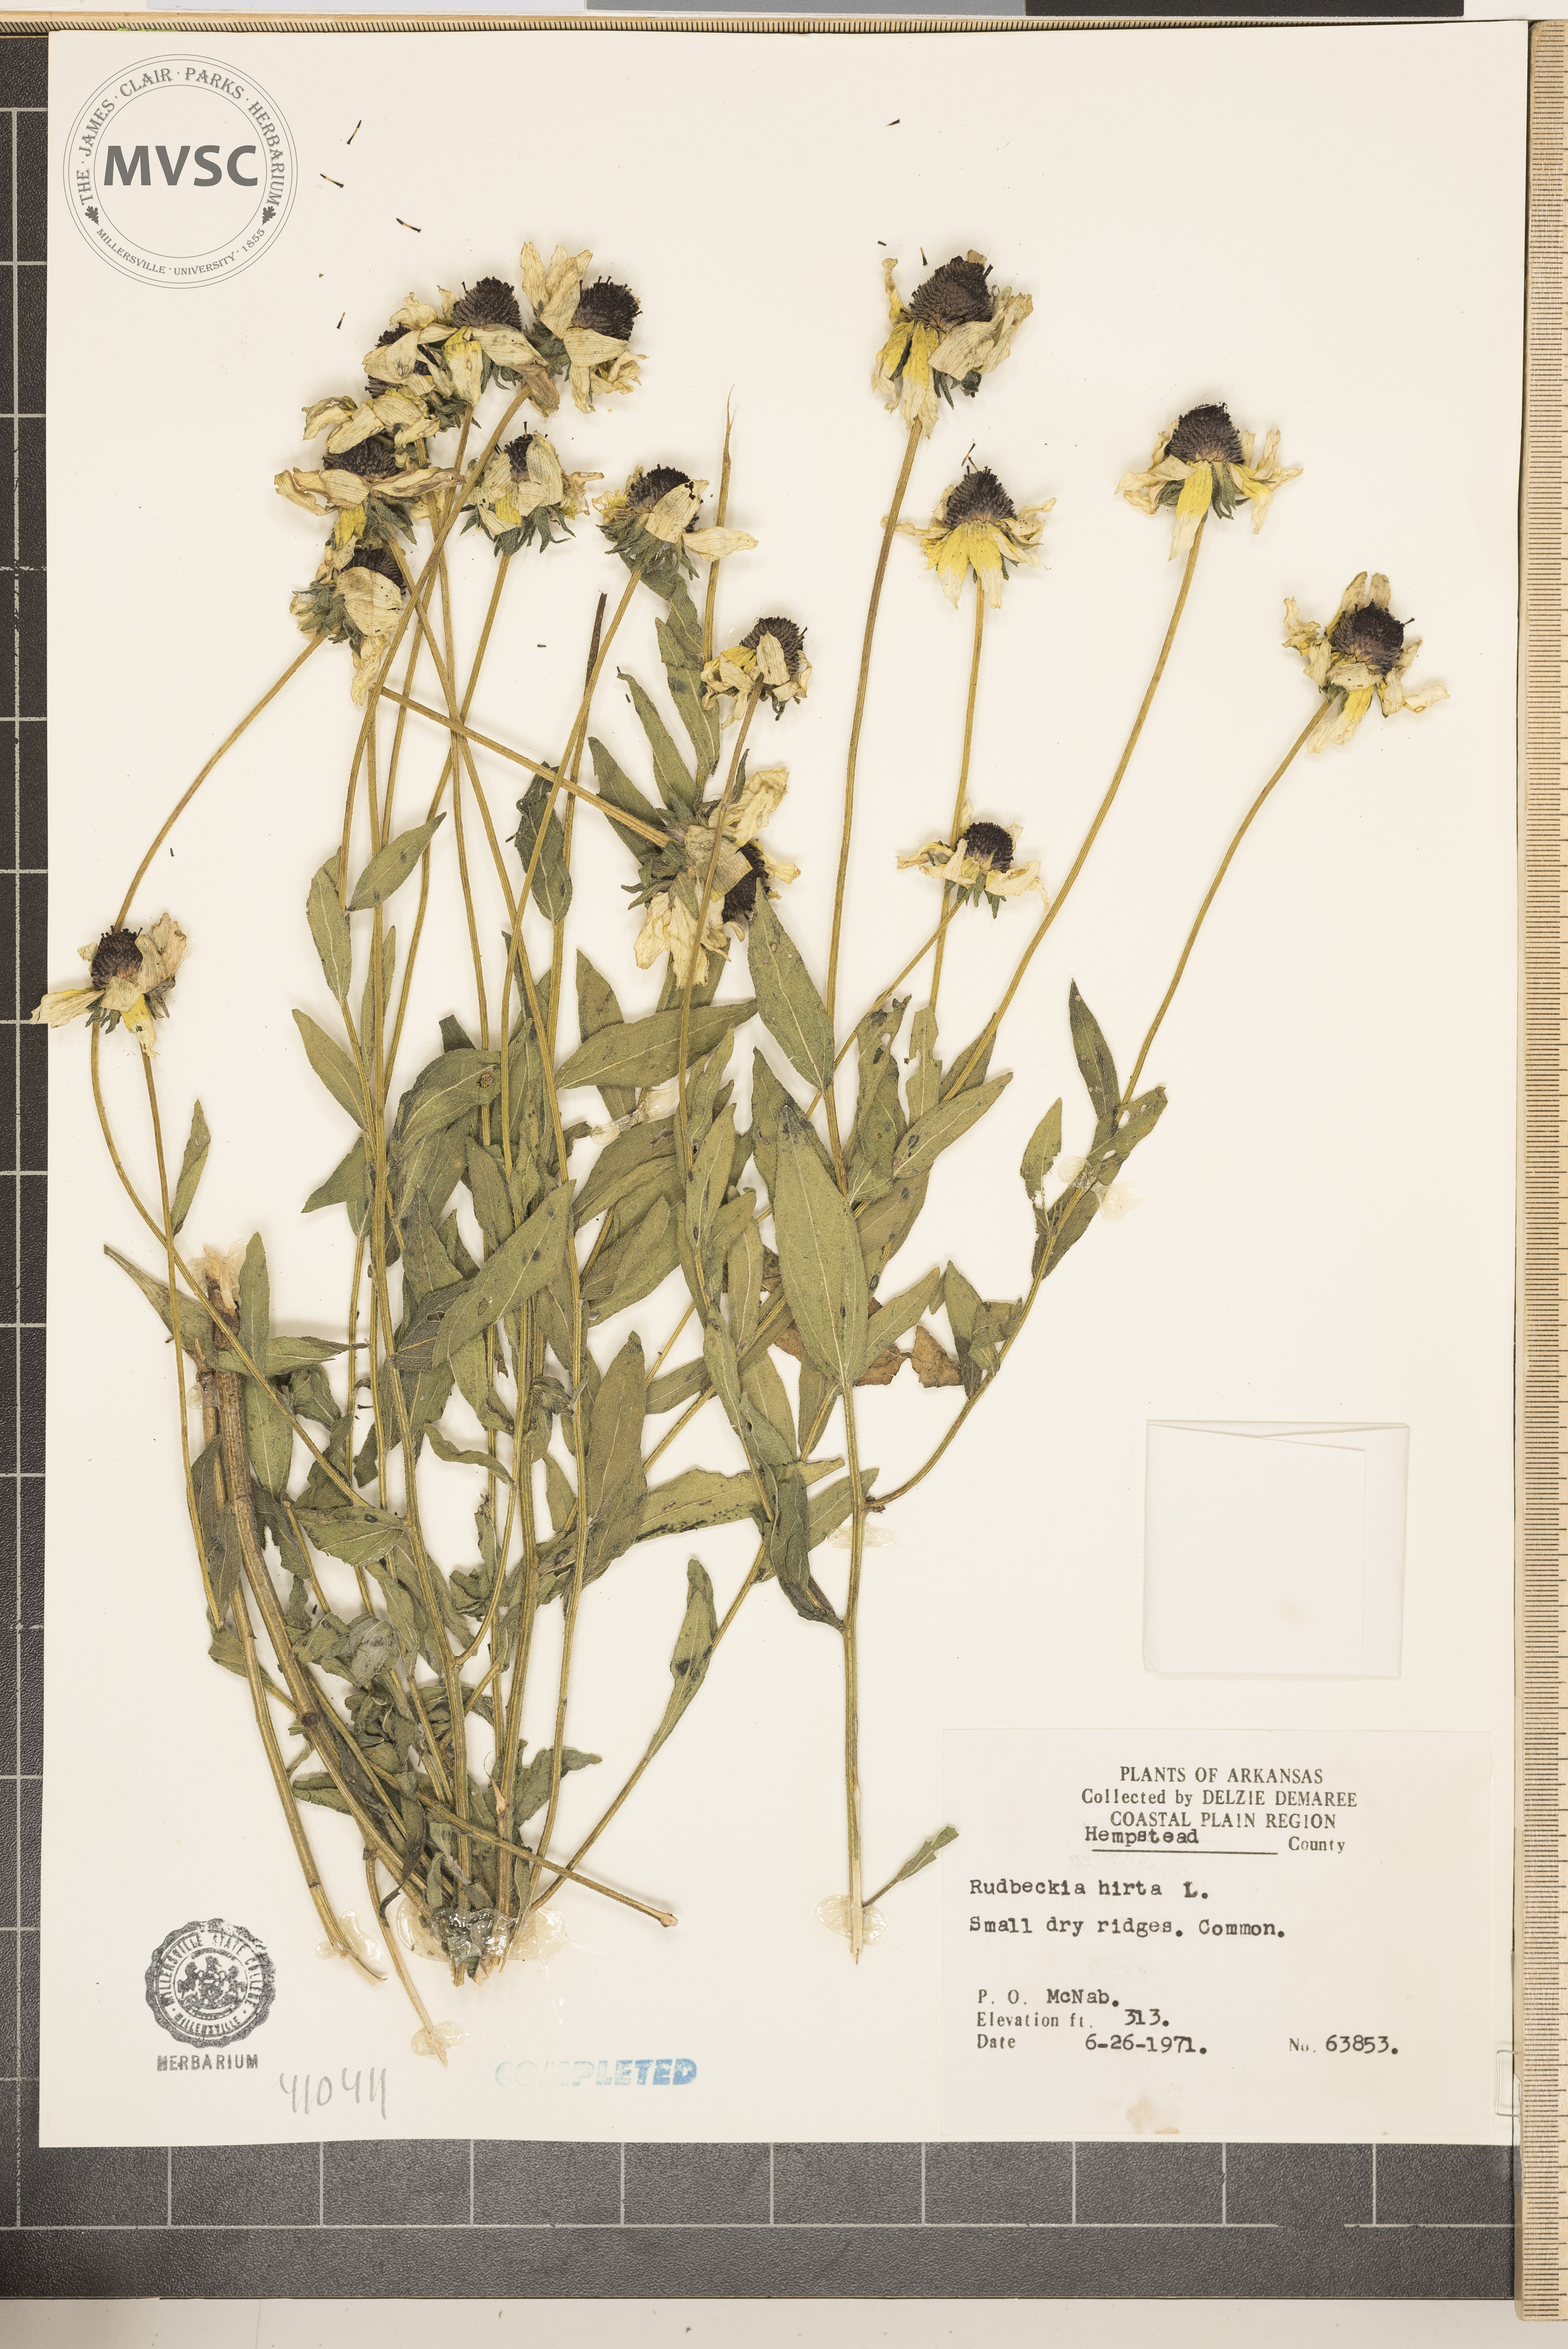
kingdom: Plantae
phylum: Tracheophyta
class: Magnoliopsida
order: Asterales
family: Asteraceae
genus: Rudbeckia
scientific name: Rudbeckia hirta
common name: Black-eyed-susan
